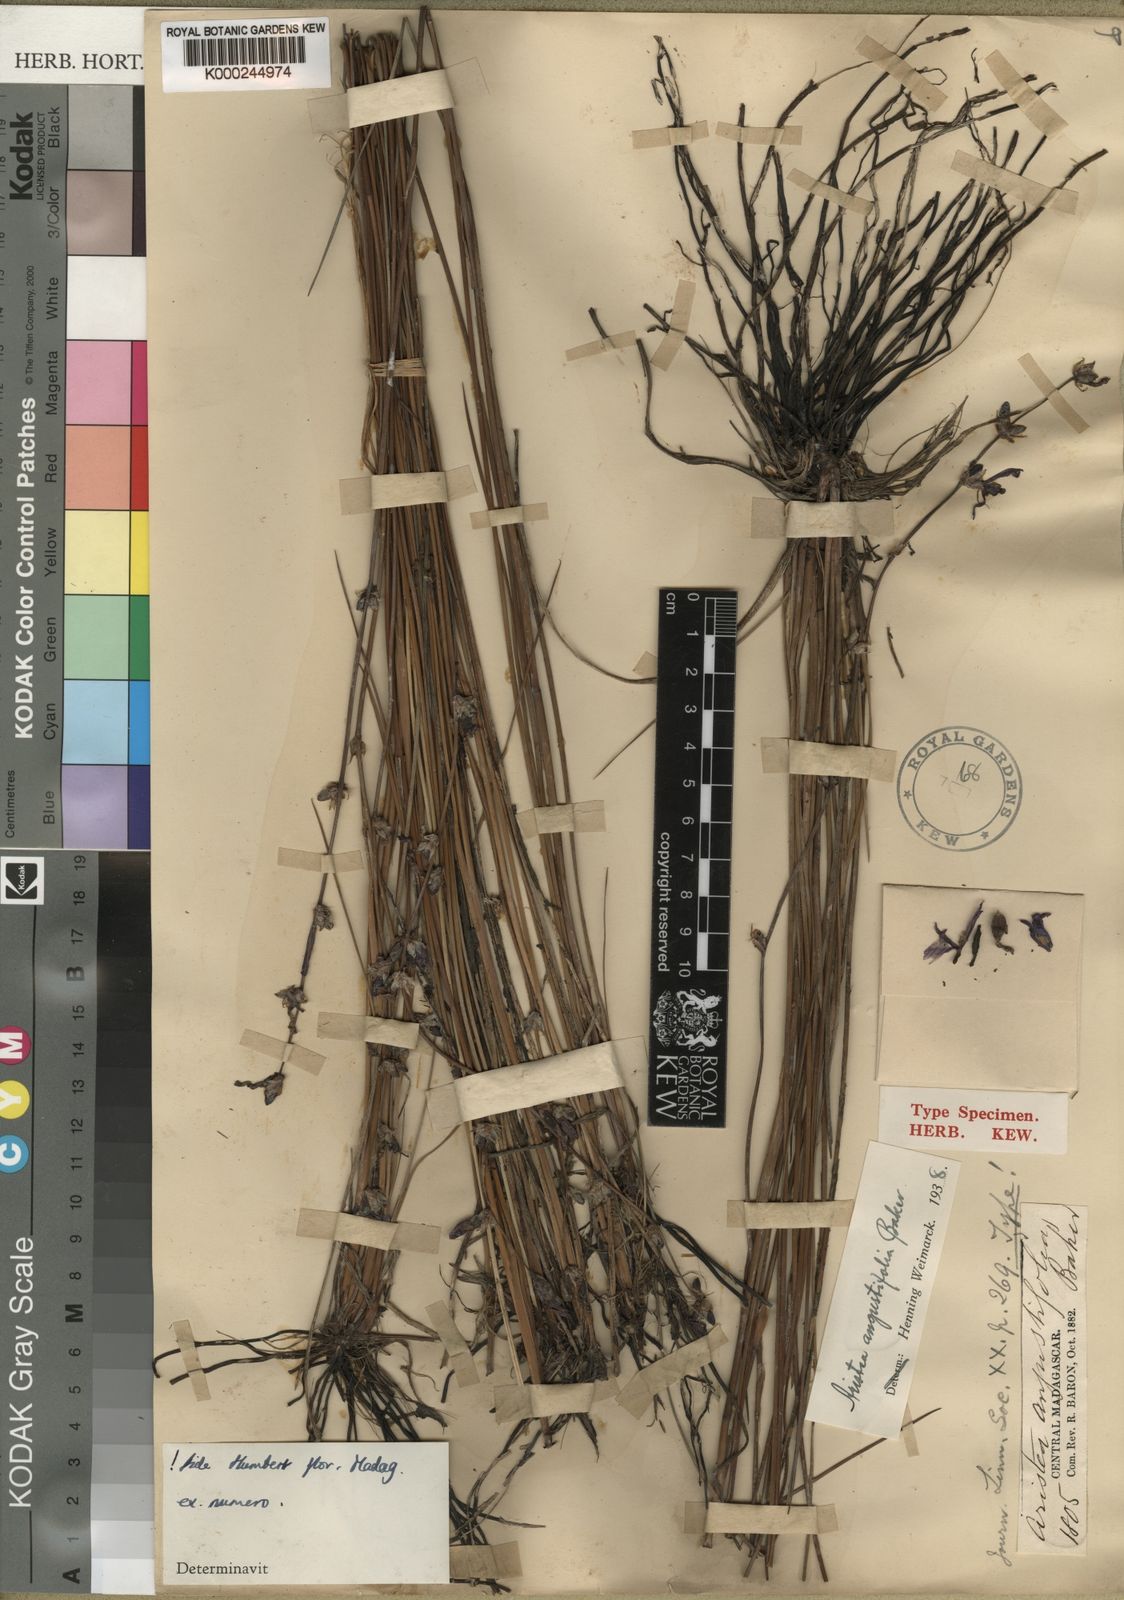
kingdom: Plantae
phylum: Tracheophyta
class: Liliopsida
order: Asparagales
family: Iridaceae
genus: Aristea
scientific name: Aristea angustifolia
